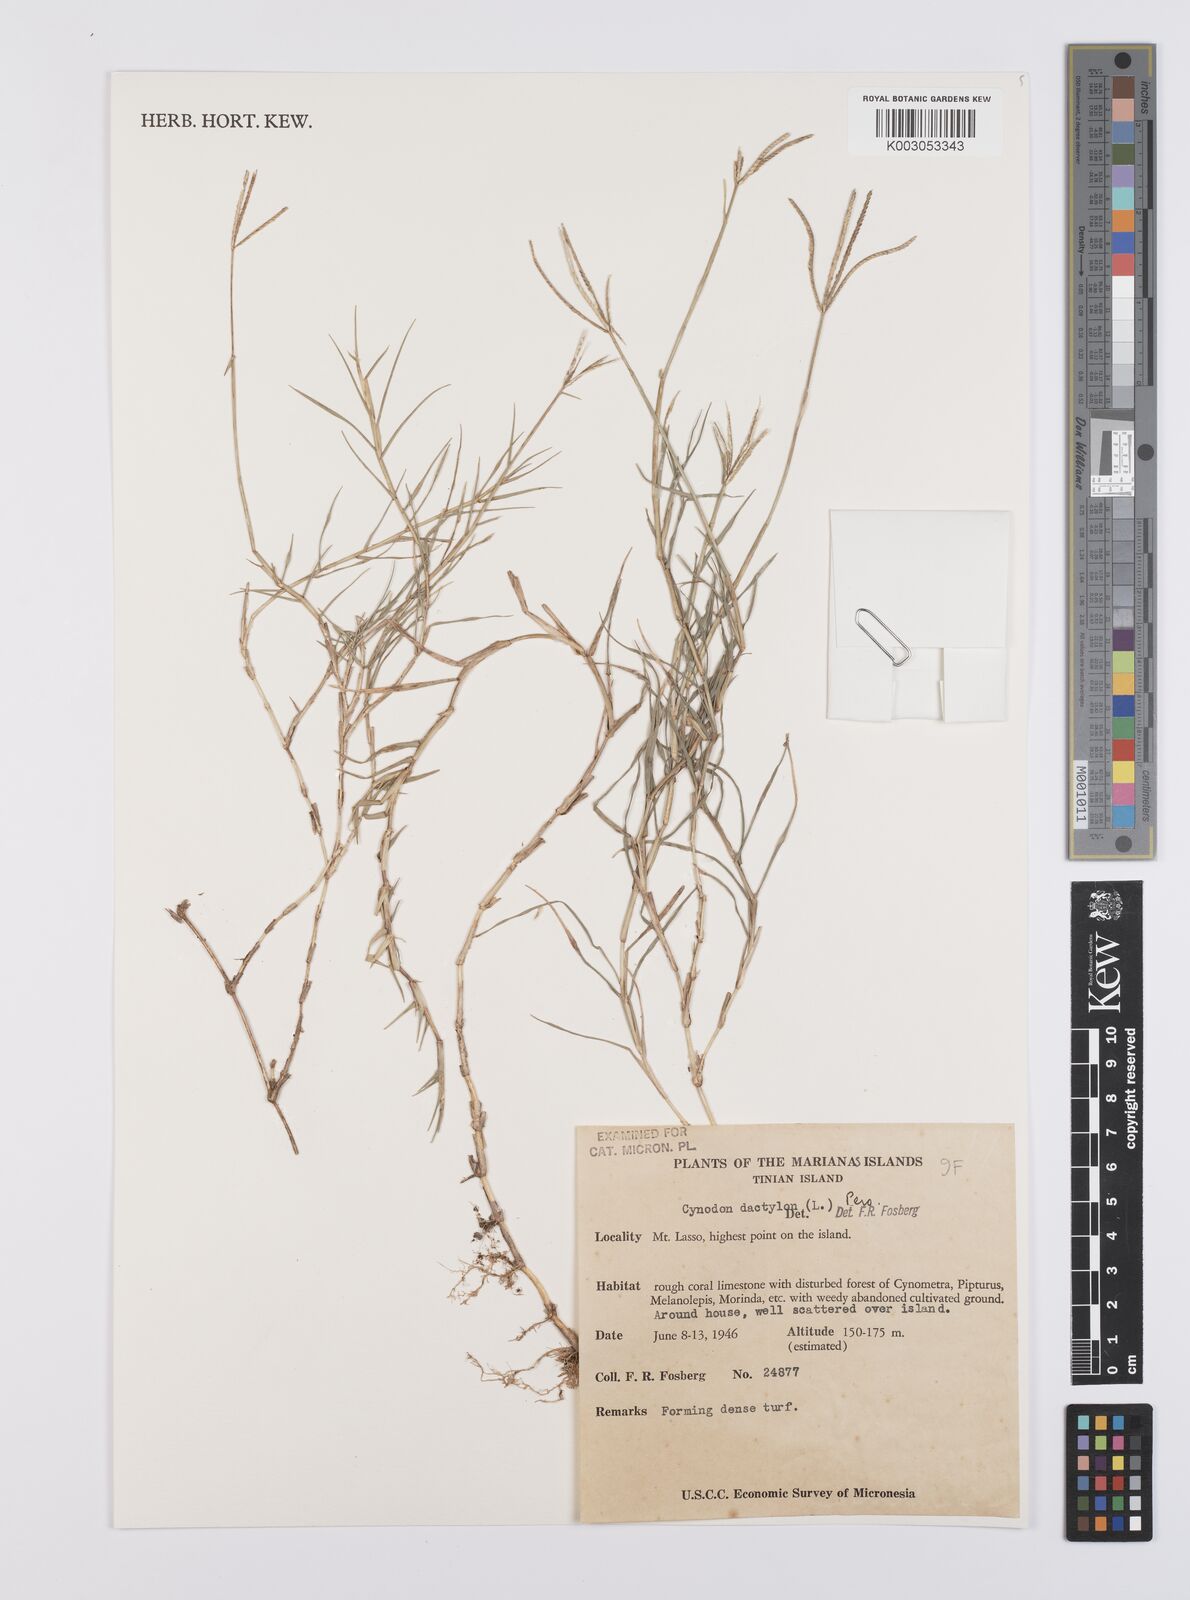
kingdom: Plantae
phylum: Tracheophyta
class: Liliopsida
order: Poales
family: Poaceae
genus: Cynodon
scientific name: Cynodon dactylon
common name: Bermuda grass
